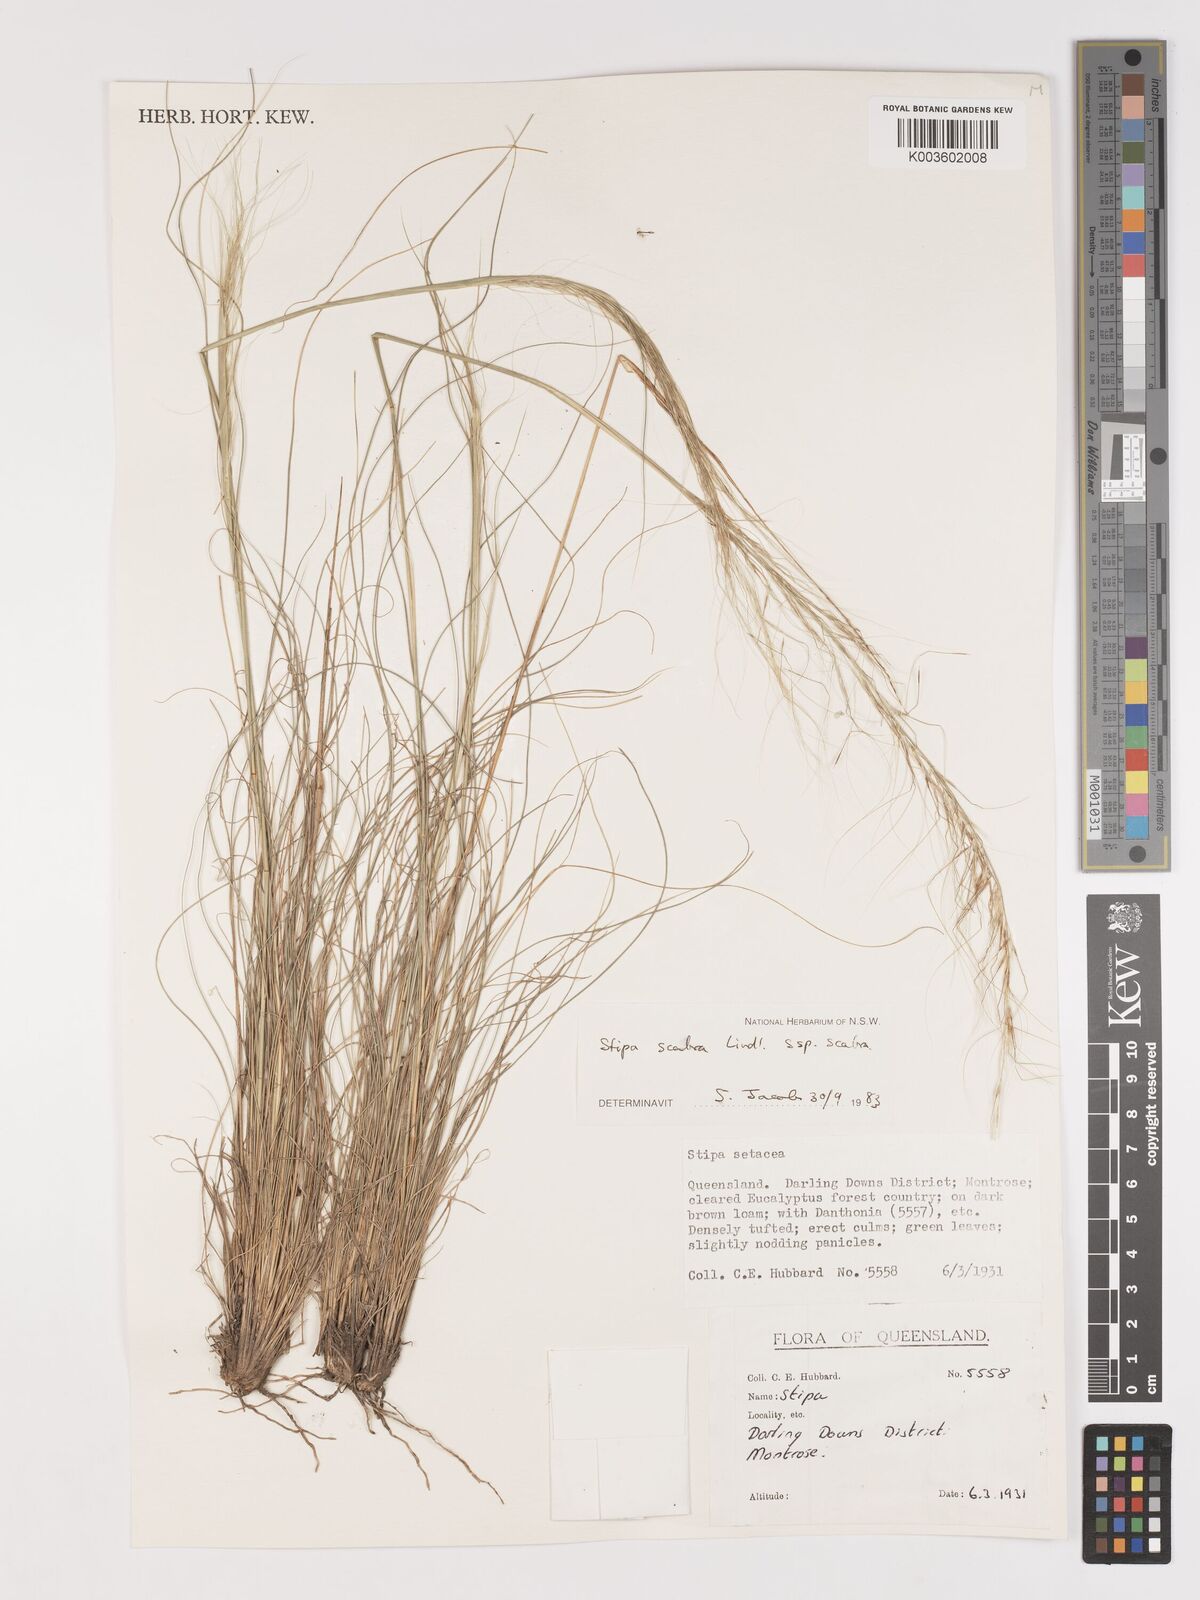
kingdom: Plantae
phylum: Tracheophyta
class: Liliopsida
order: Poales
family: Poaceae
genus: Austrostipa
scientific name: Austrostipa scabra
